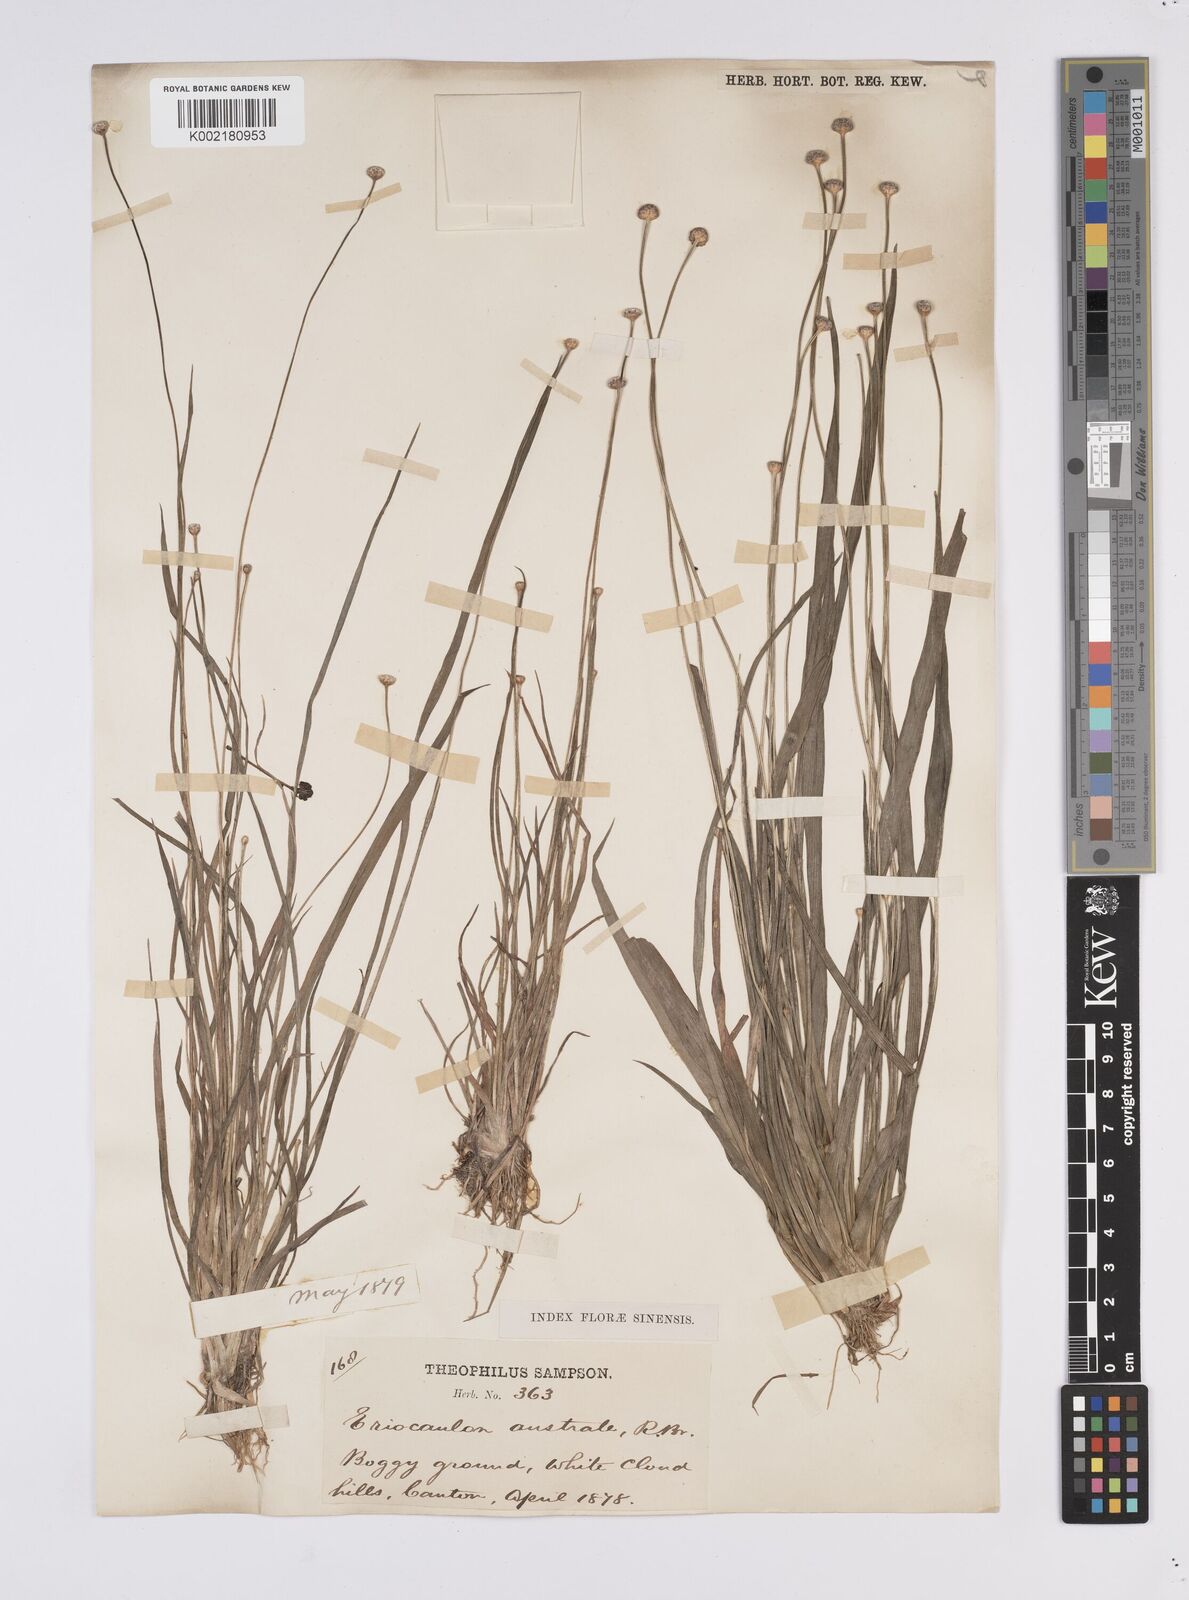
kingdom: Plantae
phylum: Tracheophyta
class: Liliopsida
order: Poales
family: Eriocaulaceae
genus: Eriocaulon
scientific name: Eriocaulon australe
